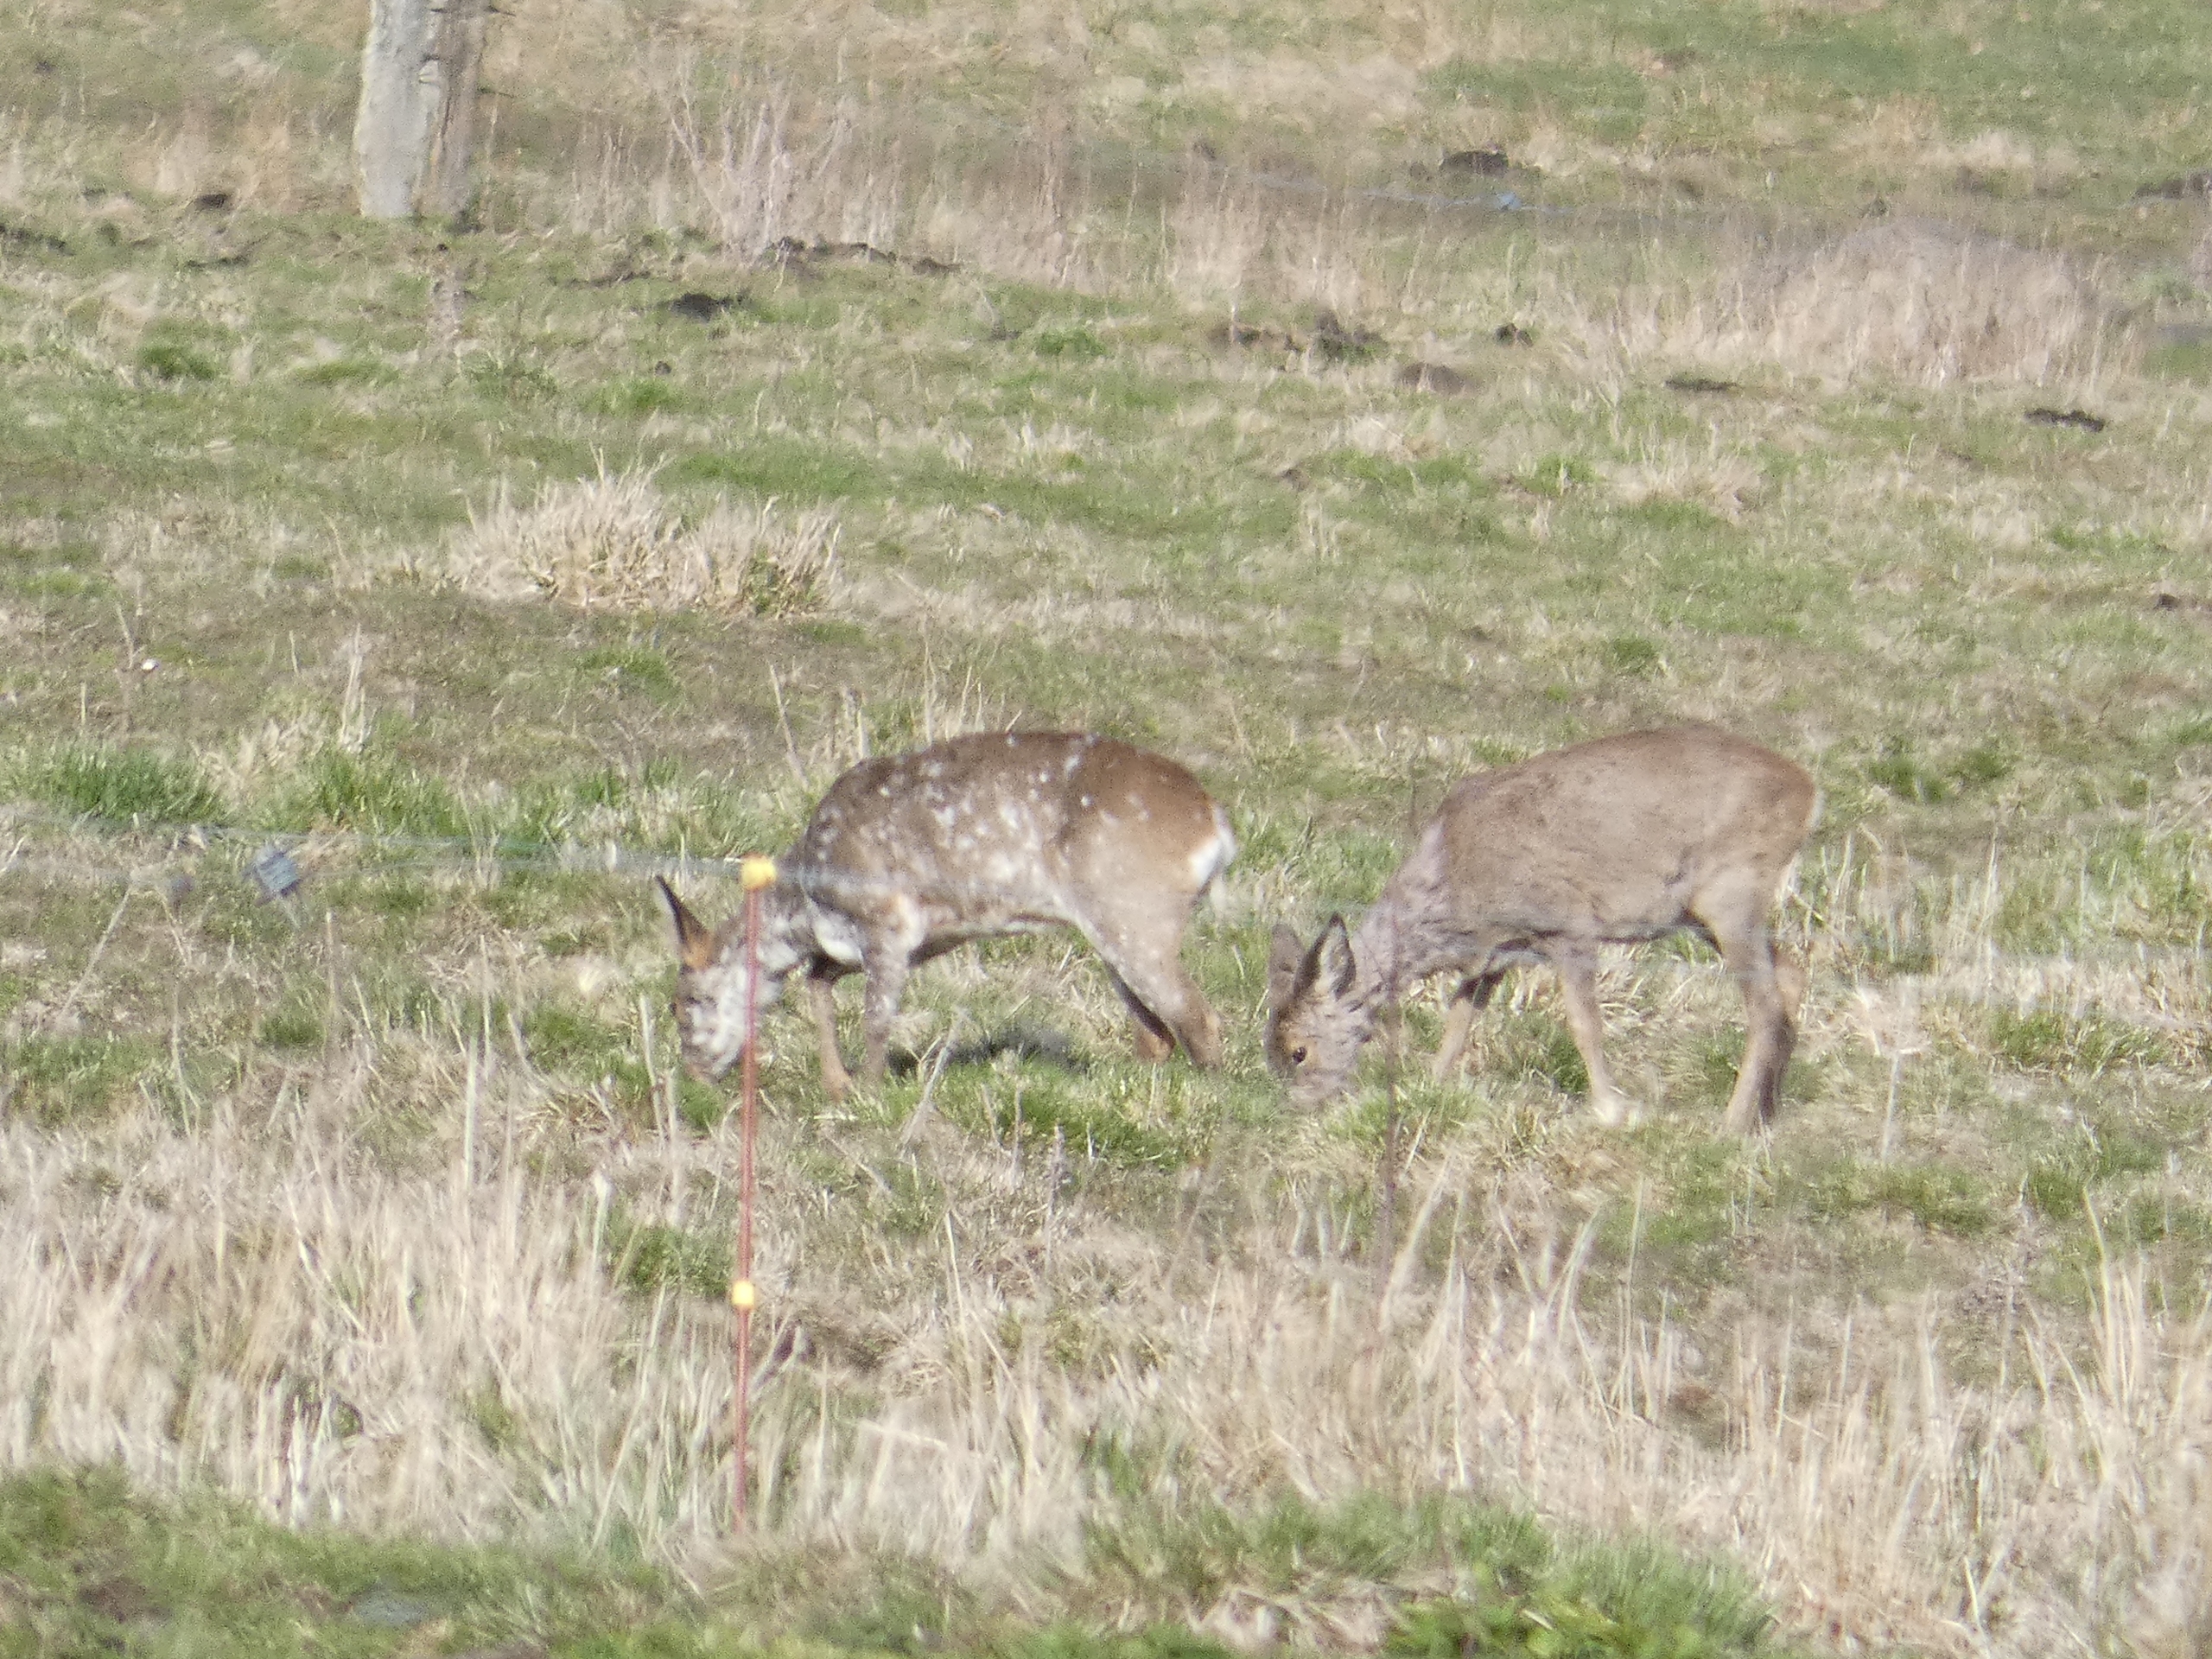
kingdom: Animalia
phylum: Chordata
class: Mammalia
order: Artiodactyla
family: Cervidae
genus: Capreolus
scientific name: Capreolus capreolus
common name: Rådyr
